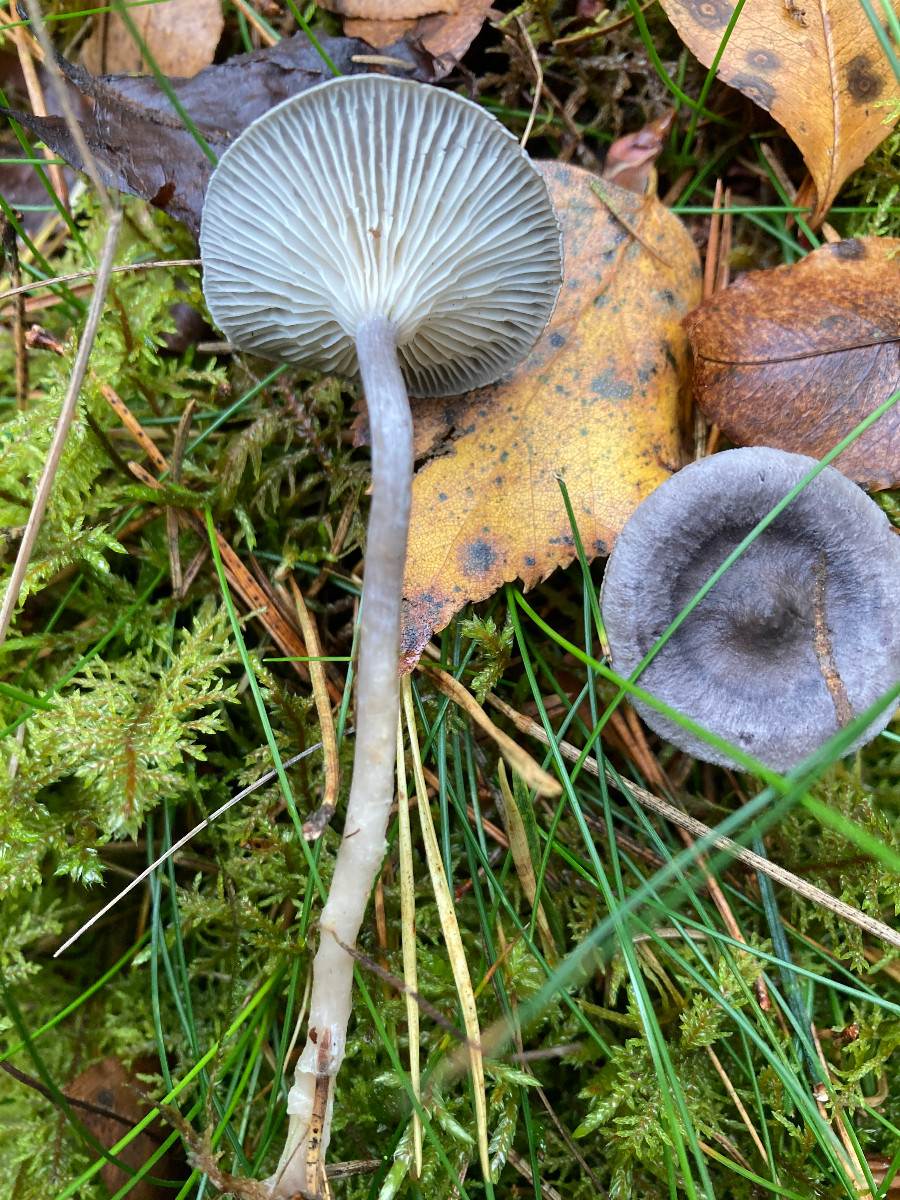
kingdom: Fungi
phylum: Basidiomycota
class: Agaricomycetes
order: Agaricales
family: Hygrophoraceae
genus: Cantharellula
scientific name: Cantharellula umbonata
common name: rødmende gaffelblad
